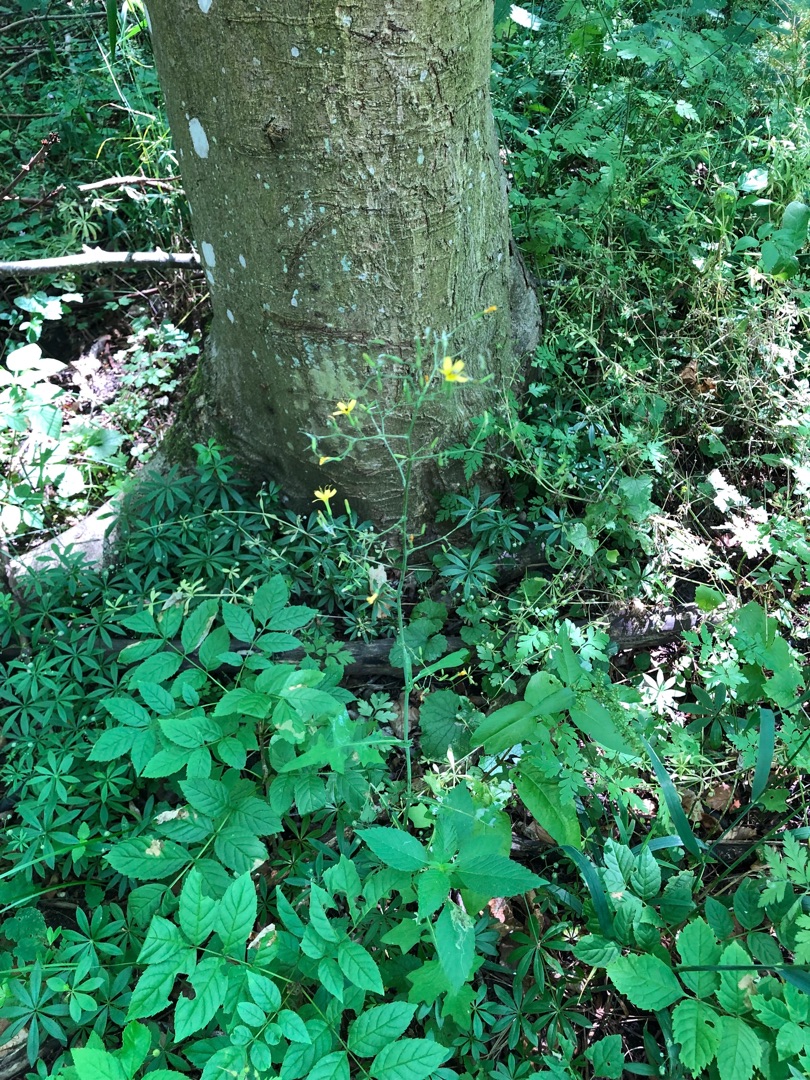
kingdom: Plantae
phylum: Tracheophyta
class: Magnoliopsida
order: Asterales
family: Asteraceae
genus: Mycelis
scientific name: Mycelis muralis
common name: Skov-salat
